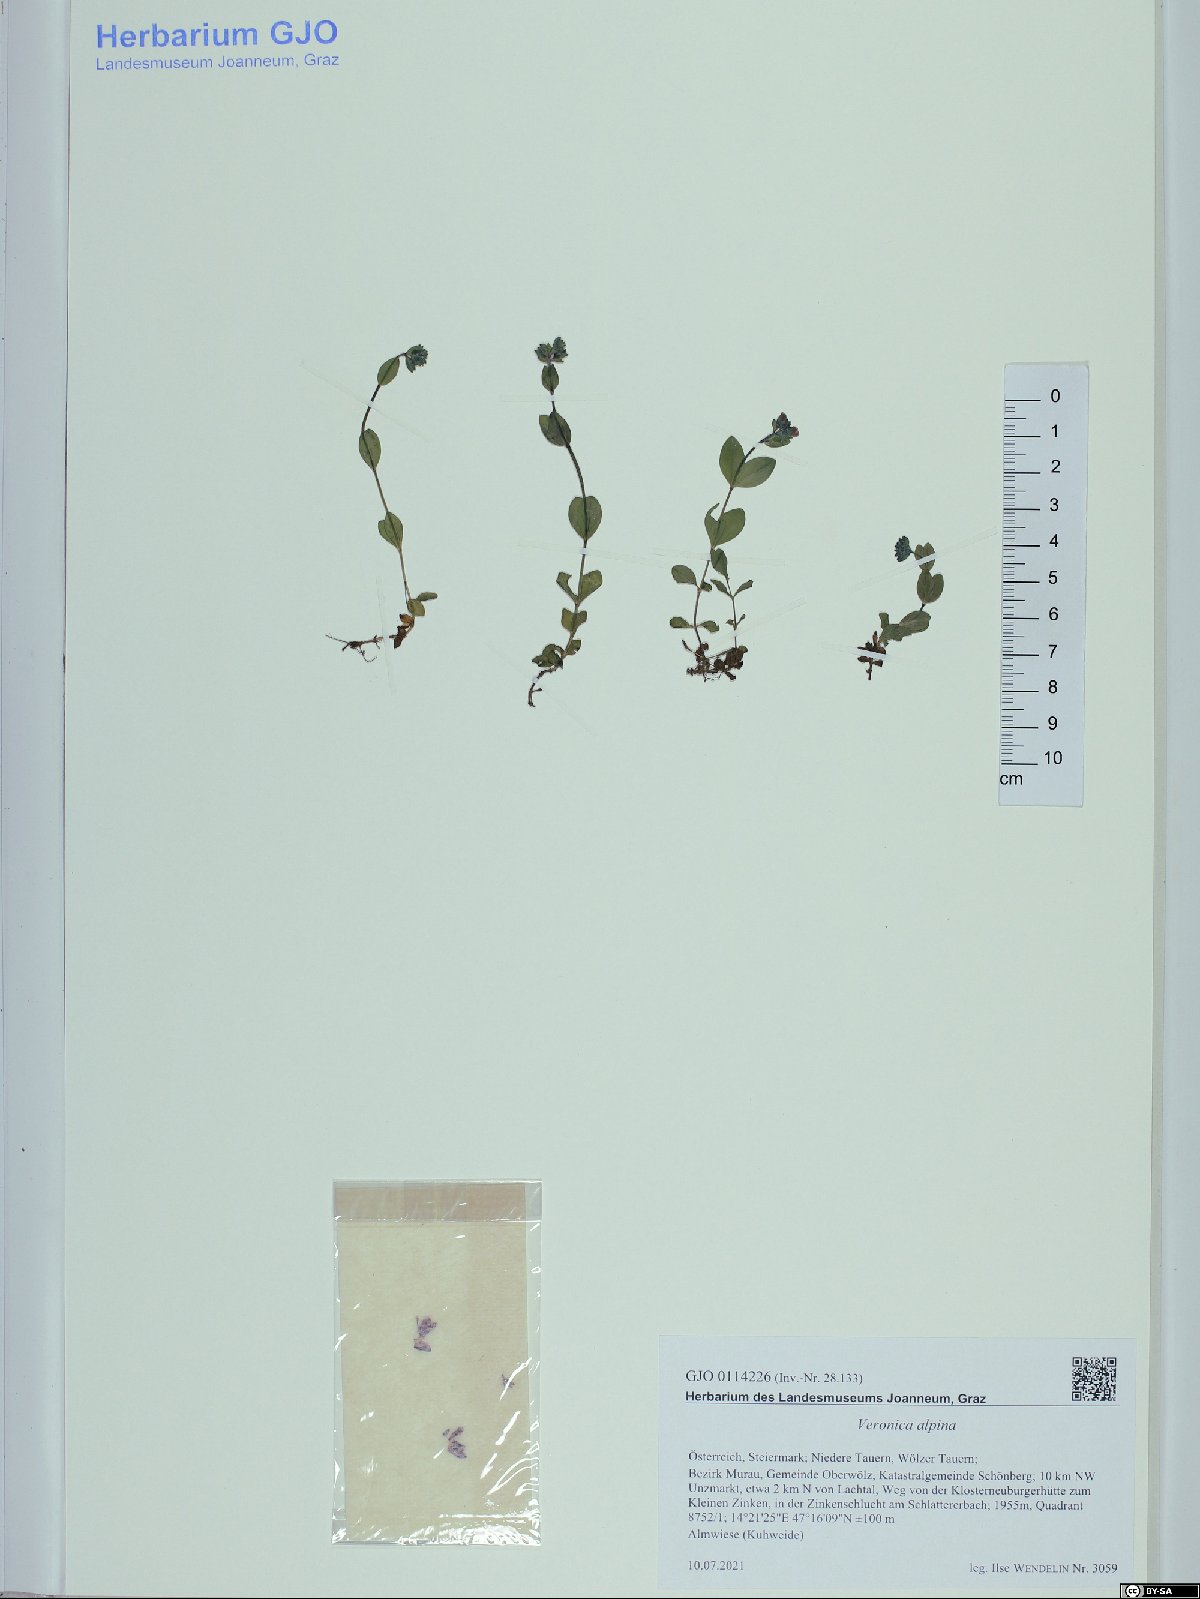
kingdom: Plantae
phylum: Tracheophyta
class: Magnoliopsida
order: Lamiales
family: Plantaginaceae
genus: Veronica
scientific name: Veronica alpina
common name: Alpine speedwell
